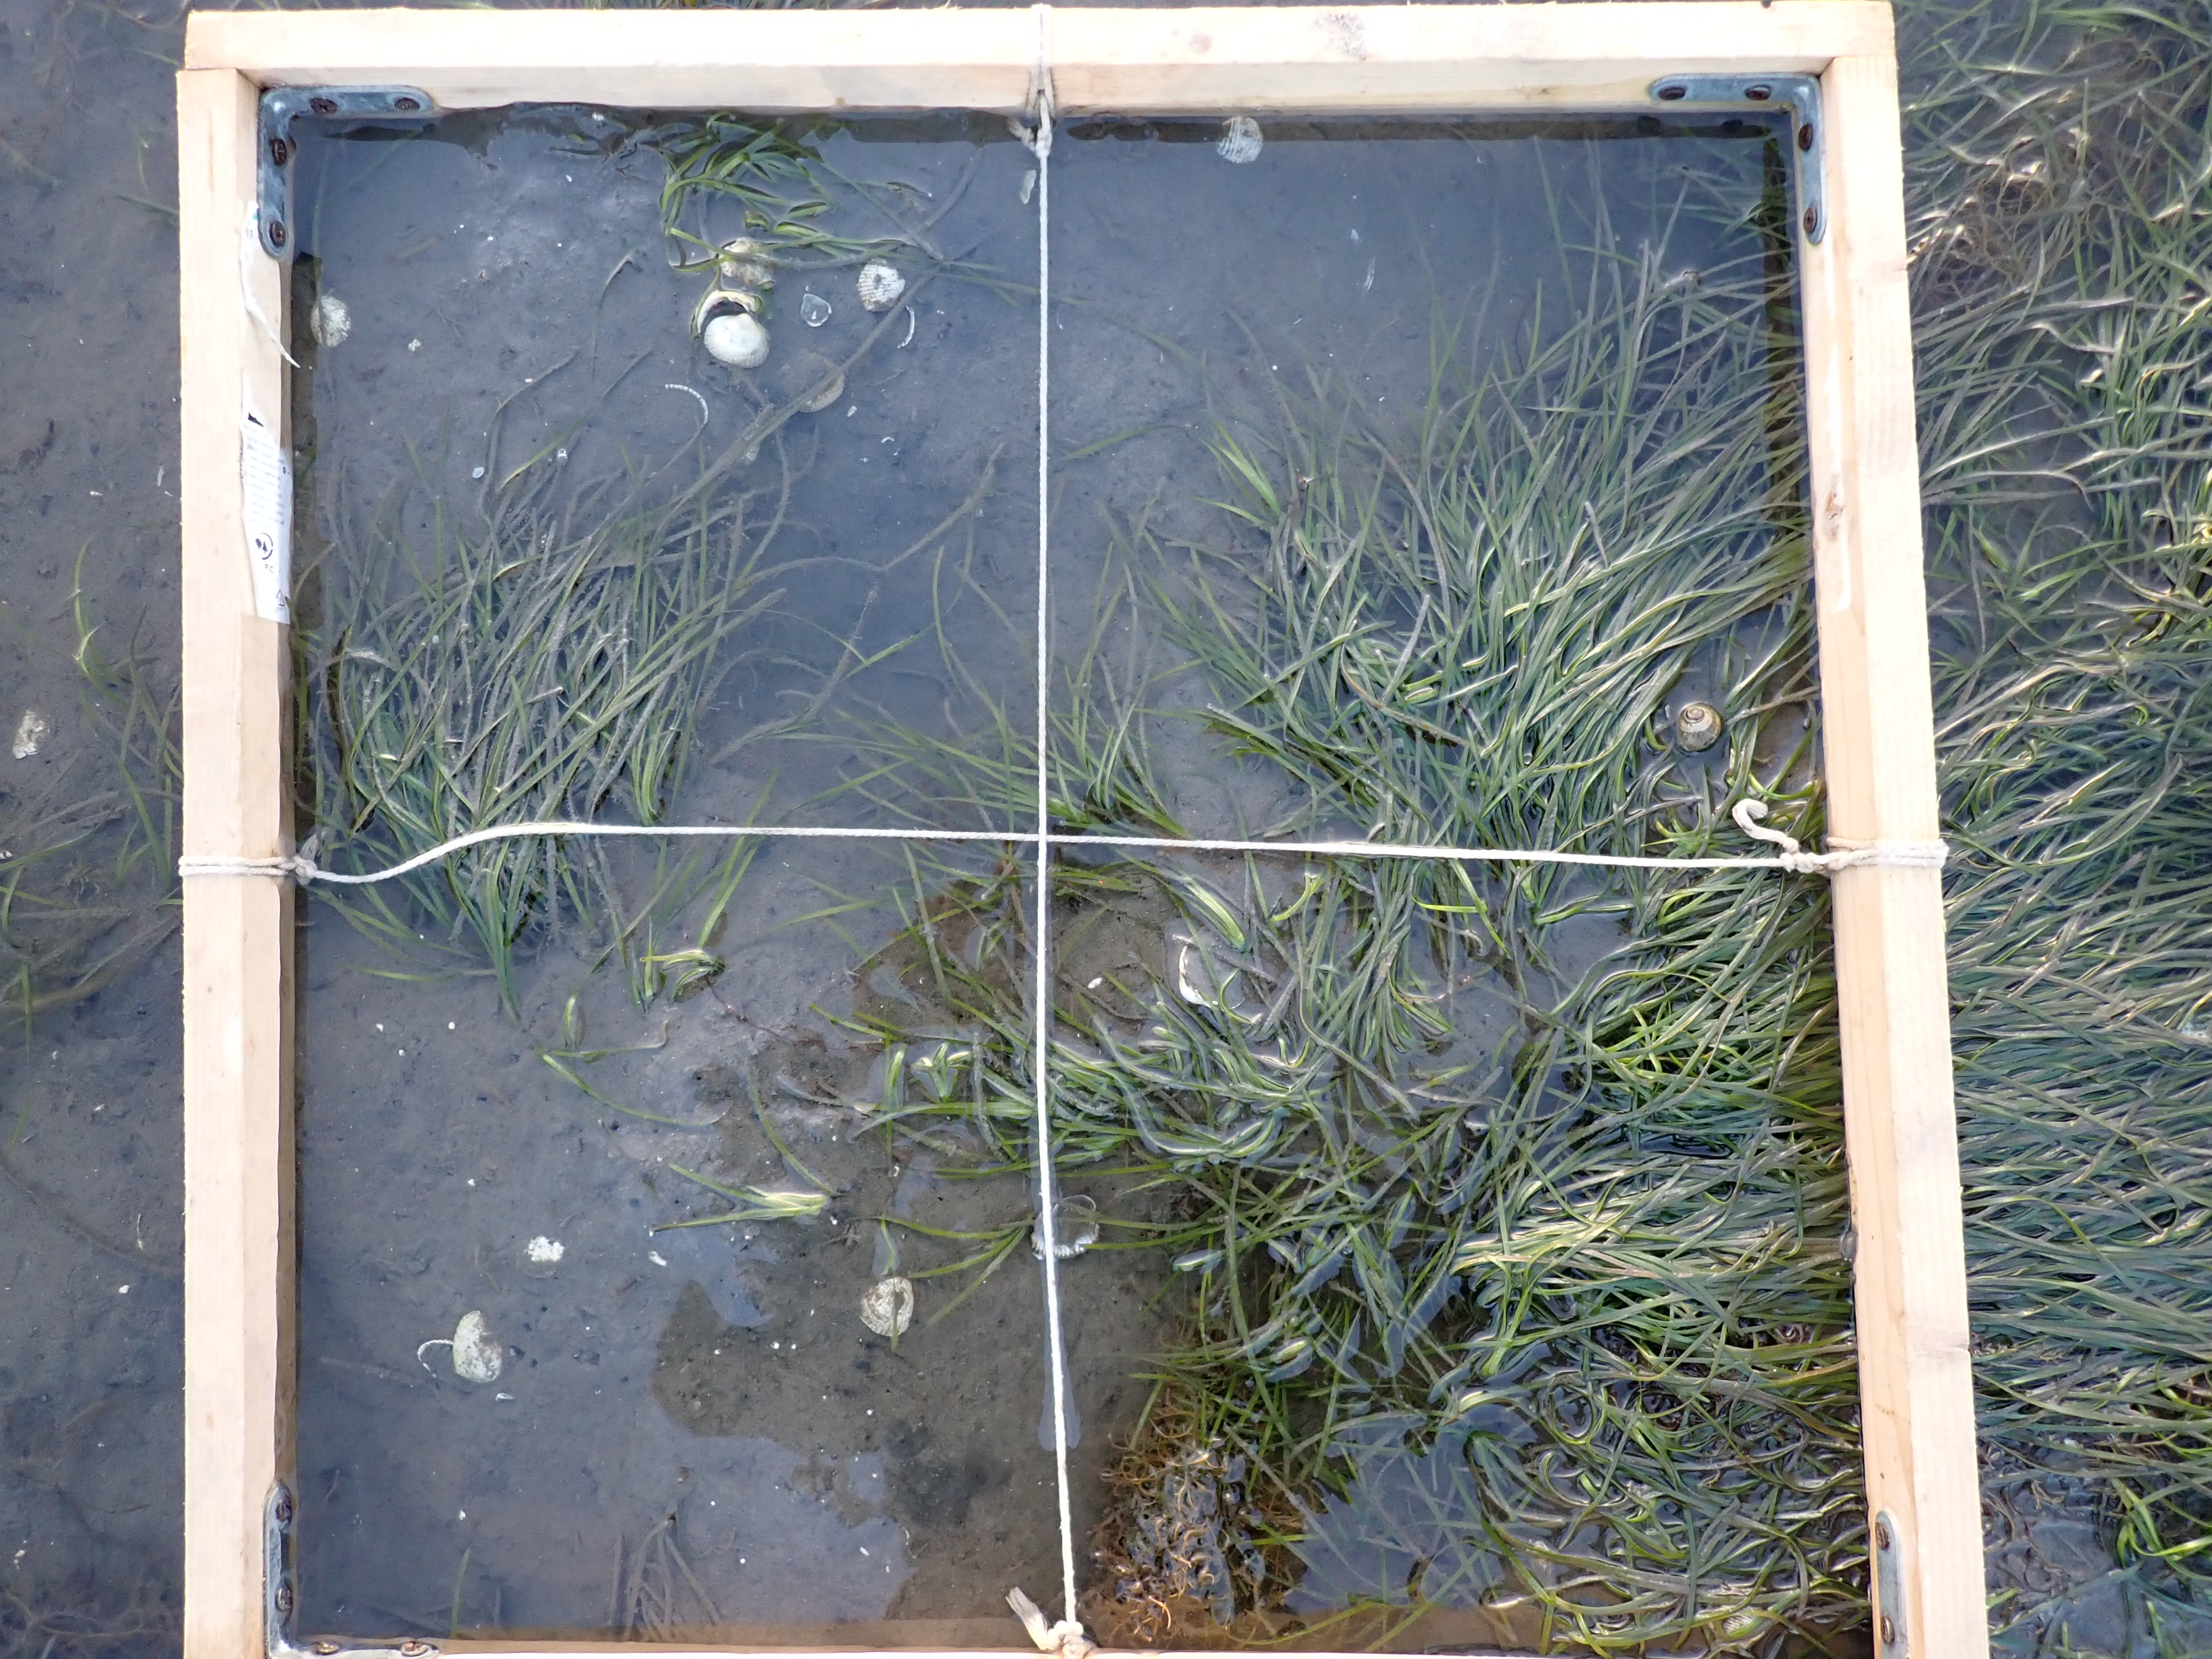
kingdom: Plantae
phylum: Tracheophyta
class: Liliopsida
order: Alismatales
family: Zosteraceae
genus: Zostera
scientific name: Zostera noltii
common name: Dwarf eelgrass
